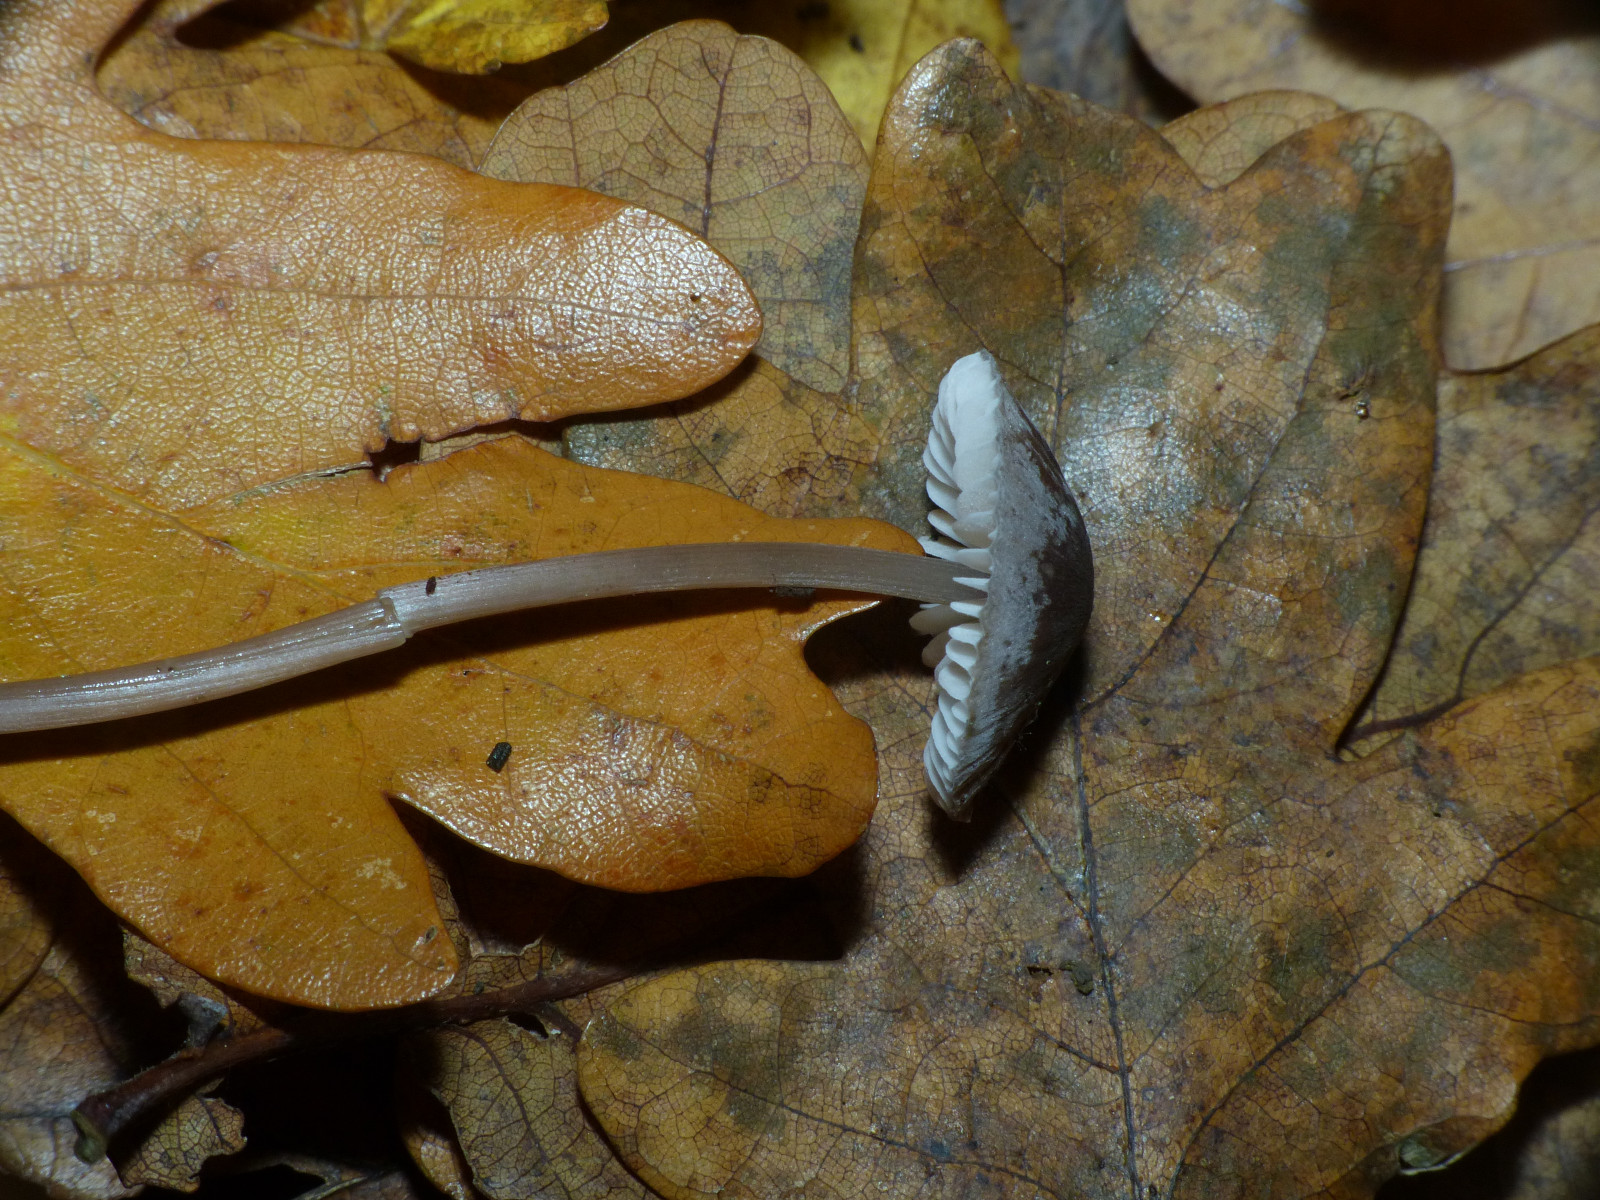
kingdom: Fungi
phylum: Basidiomycota
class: Agaricomycetes
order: Agaricales
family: Mycenaceae
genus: Mycena
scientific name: Mycena polygramma
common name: mangestribet huesvamp
